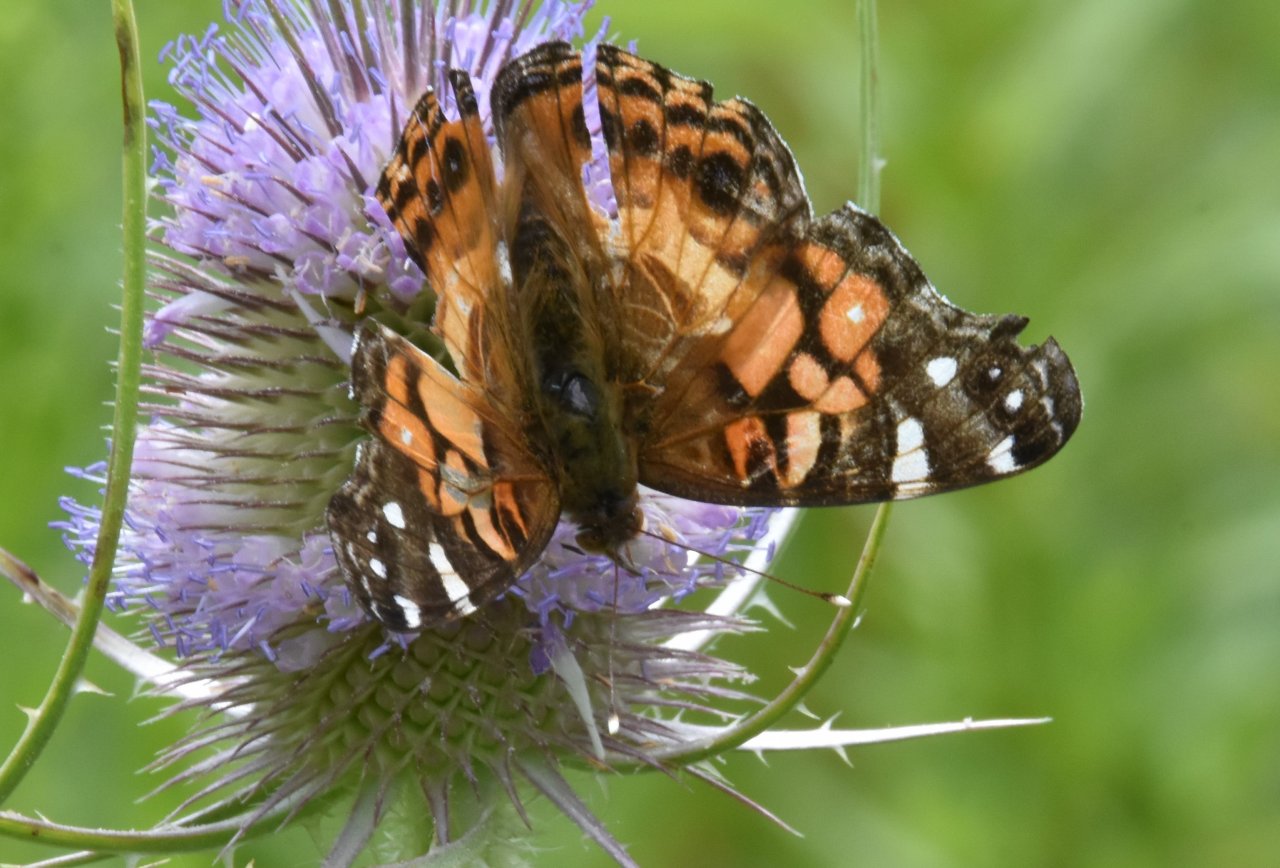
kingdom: Animalia
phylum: Arthropoda
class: Insecta
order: Lepidoptera
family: Nymphalidae
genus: Vanessa
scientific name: Vanessa virginiensis
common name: American Lady
